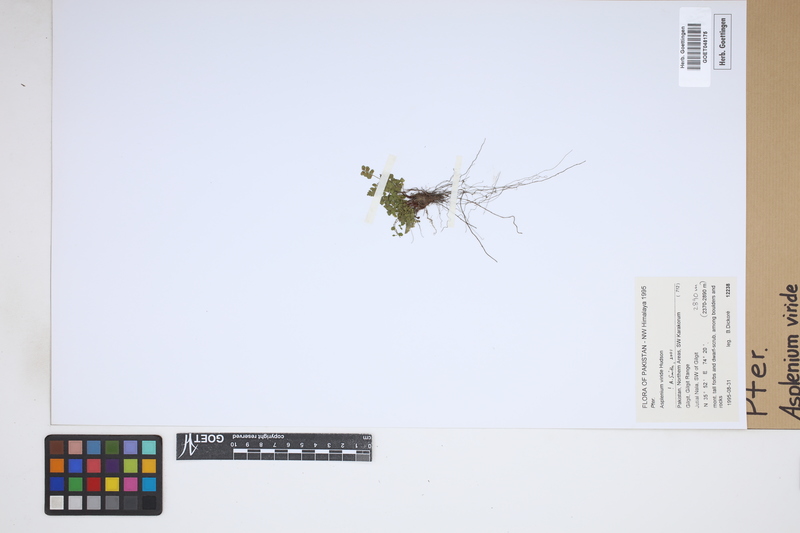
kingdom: Plantae
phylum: Tracheophyta
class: Polypodiopsida
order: Polypodiales
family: Aspleniaceae
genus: Asplenium
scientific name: Asplenium viride
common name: Green spleenwort
